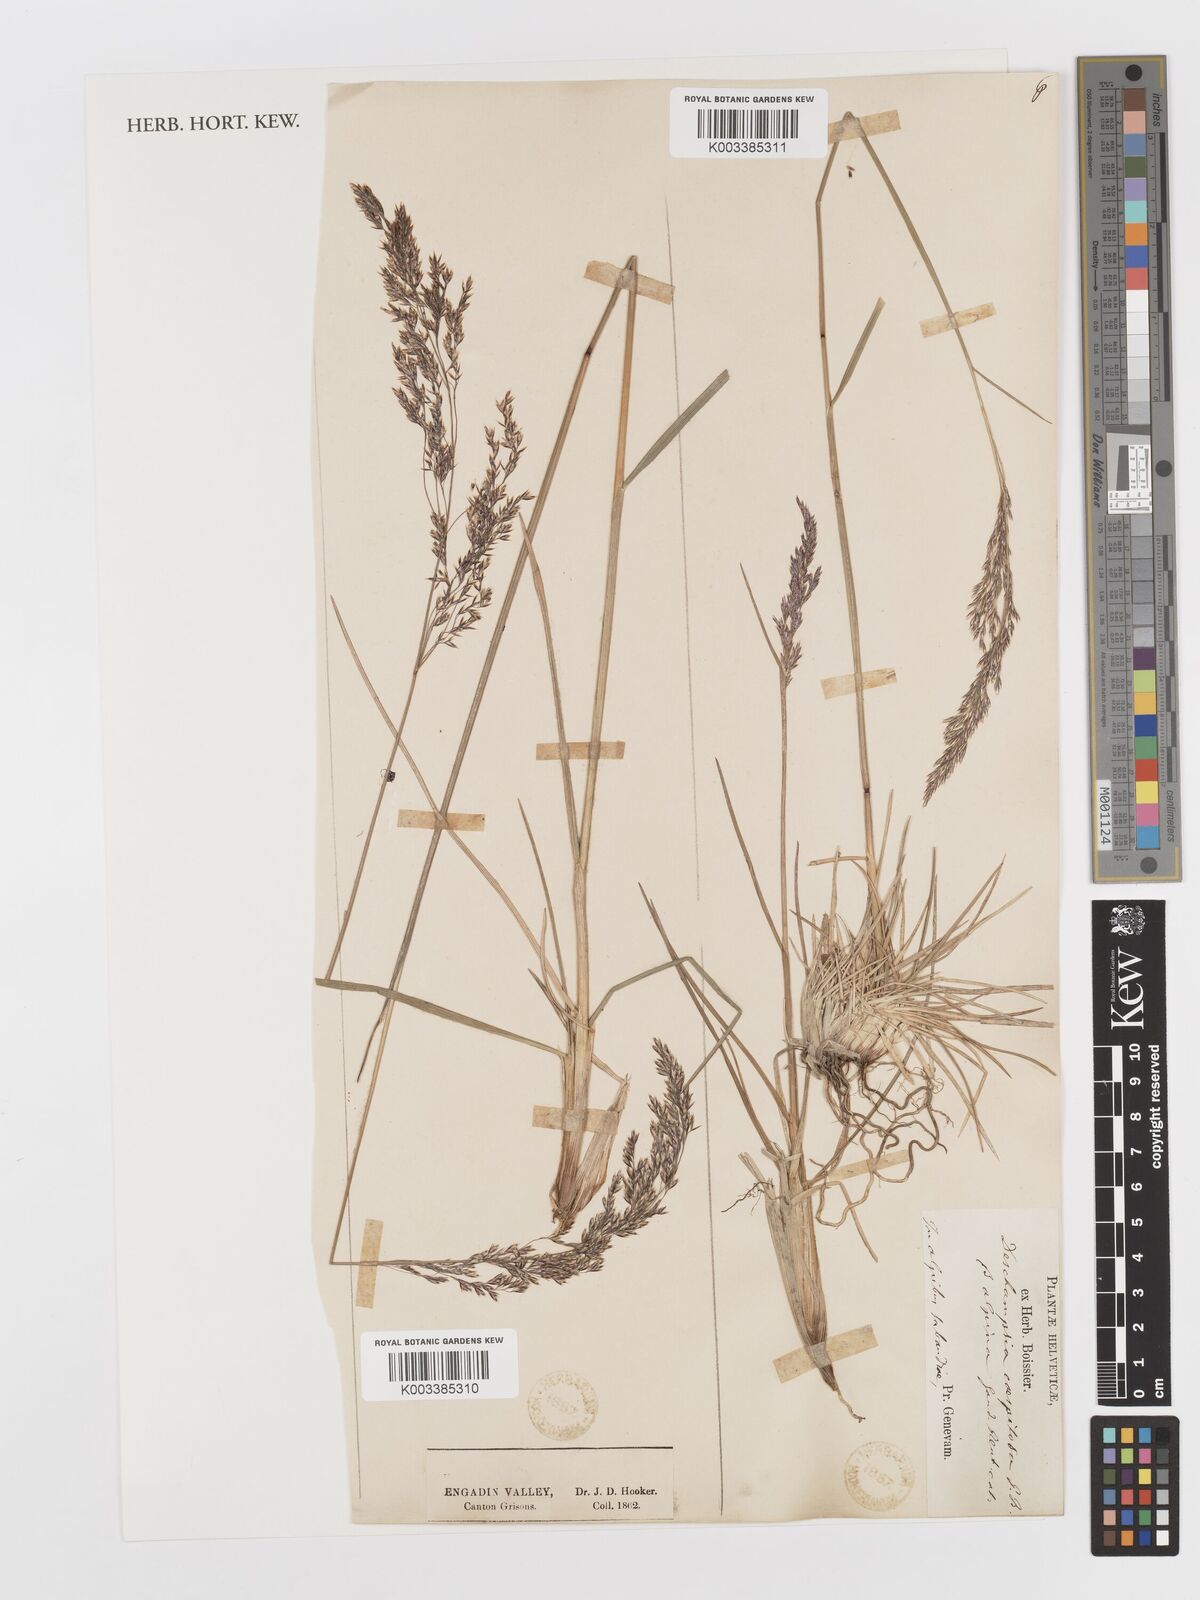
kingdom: Plantae
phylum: Tracheophyta
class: Liliopsida
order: Poales
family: Poaceae
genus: Deschampsia
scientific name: Deschampsia cespitosa
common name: Tufted hair-grass
